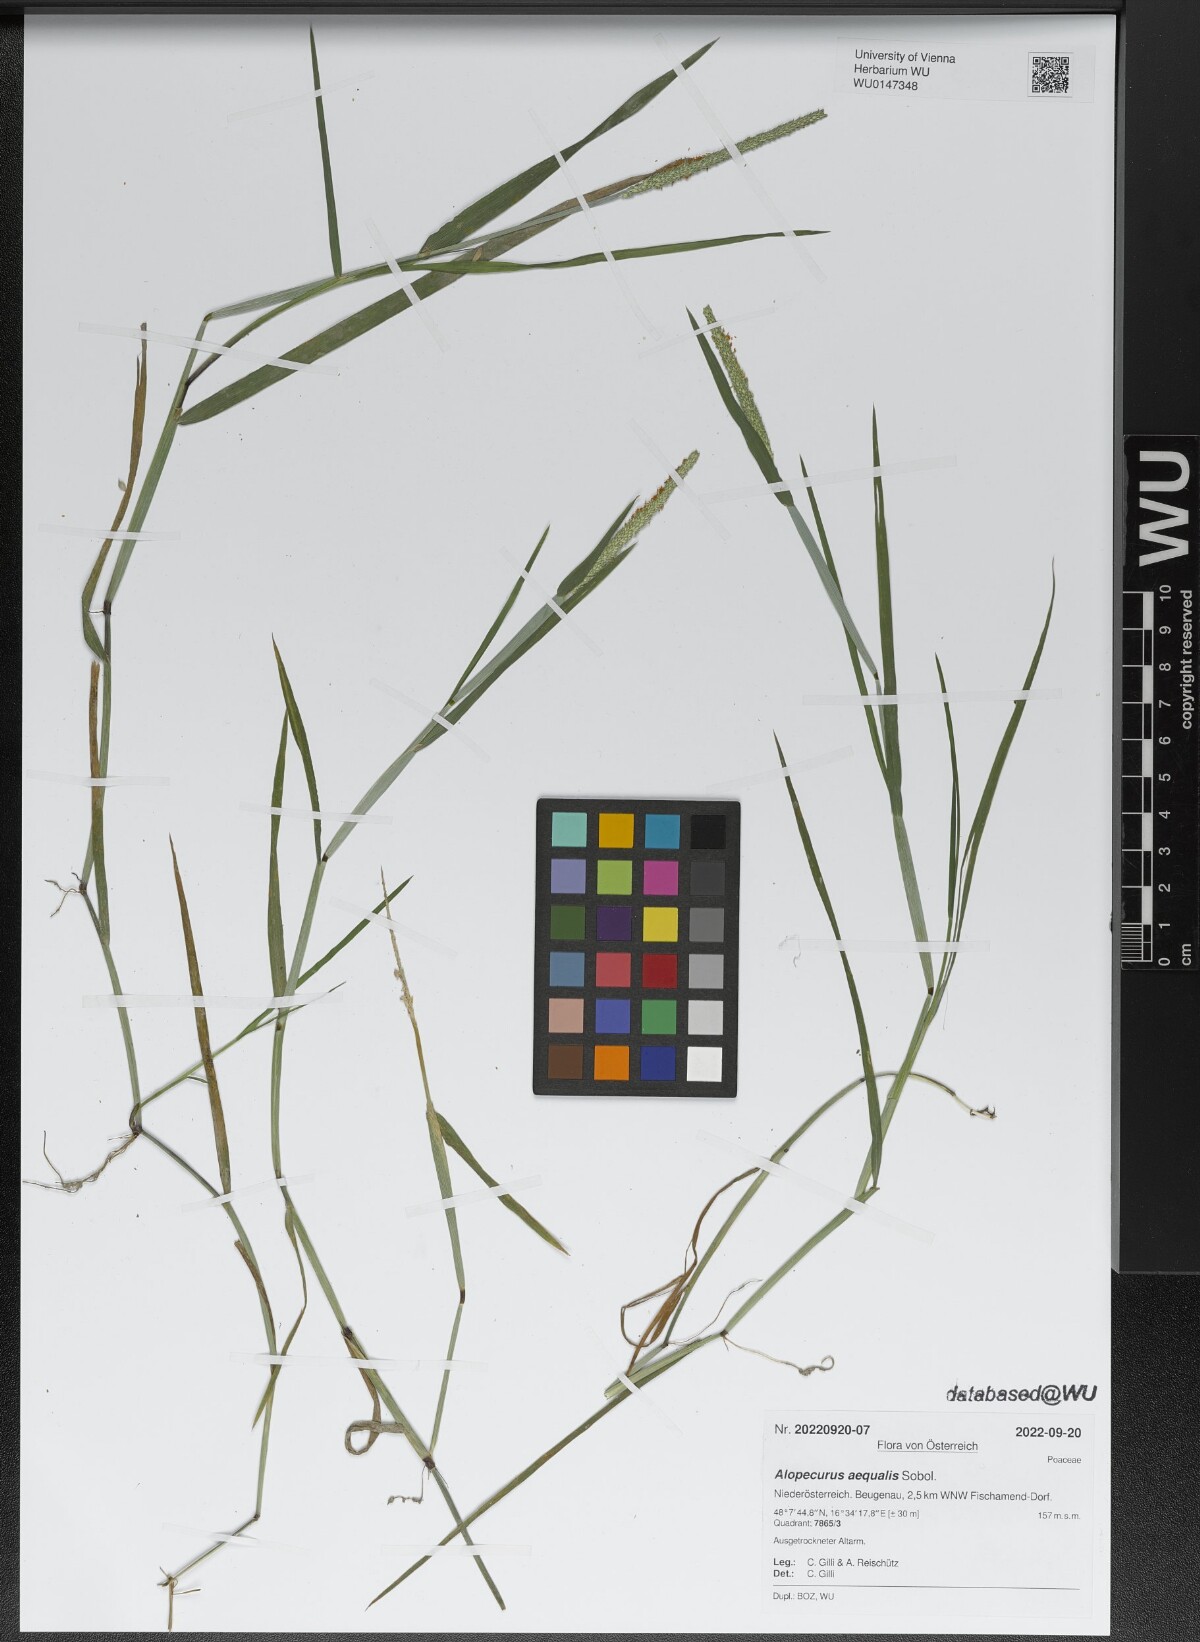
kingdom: Plantae
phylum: Tracheophyta
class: Liliopsida
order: Poales
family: Poaceae
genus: Alopecurus
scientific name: Alopecurus aequalis
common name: Orange foxtail
